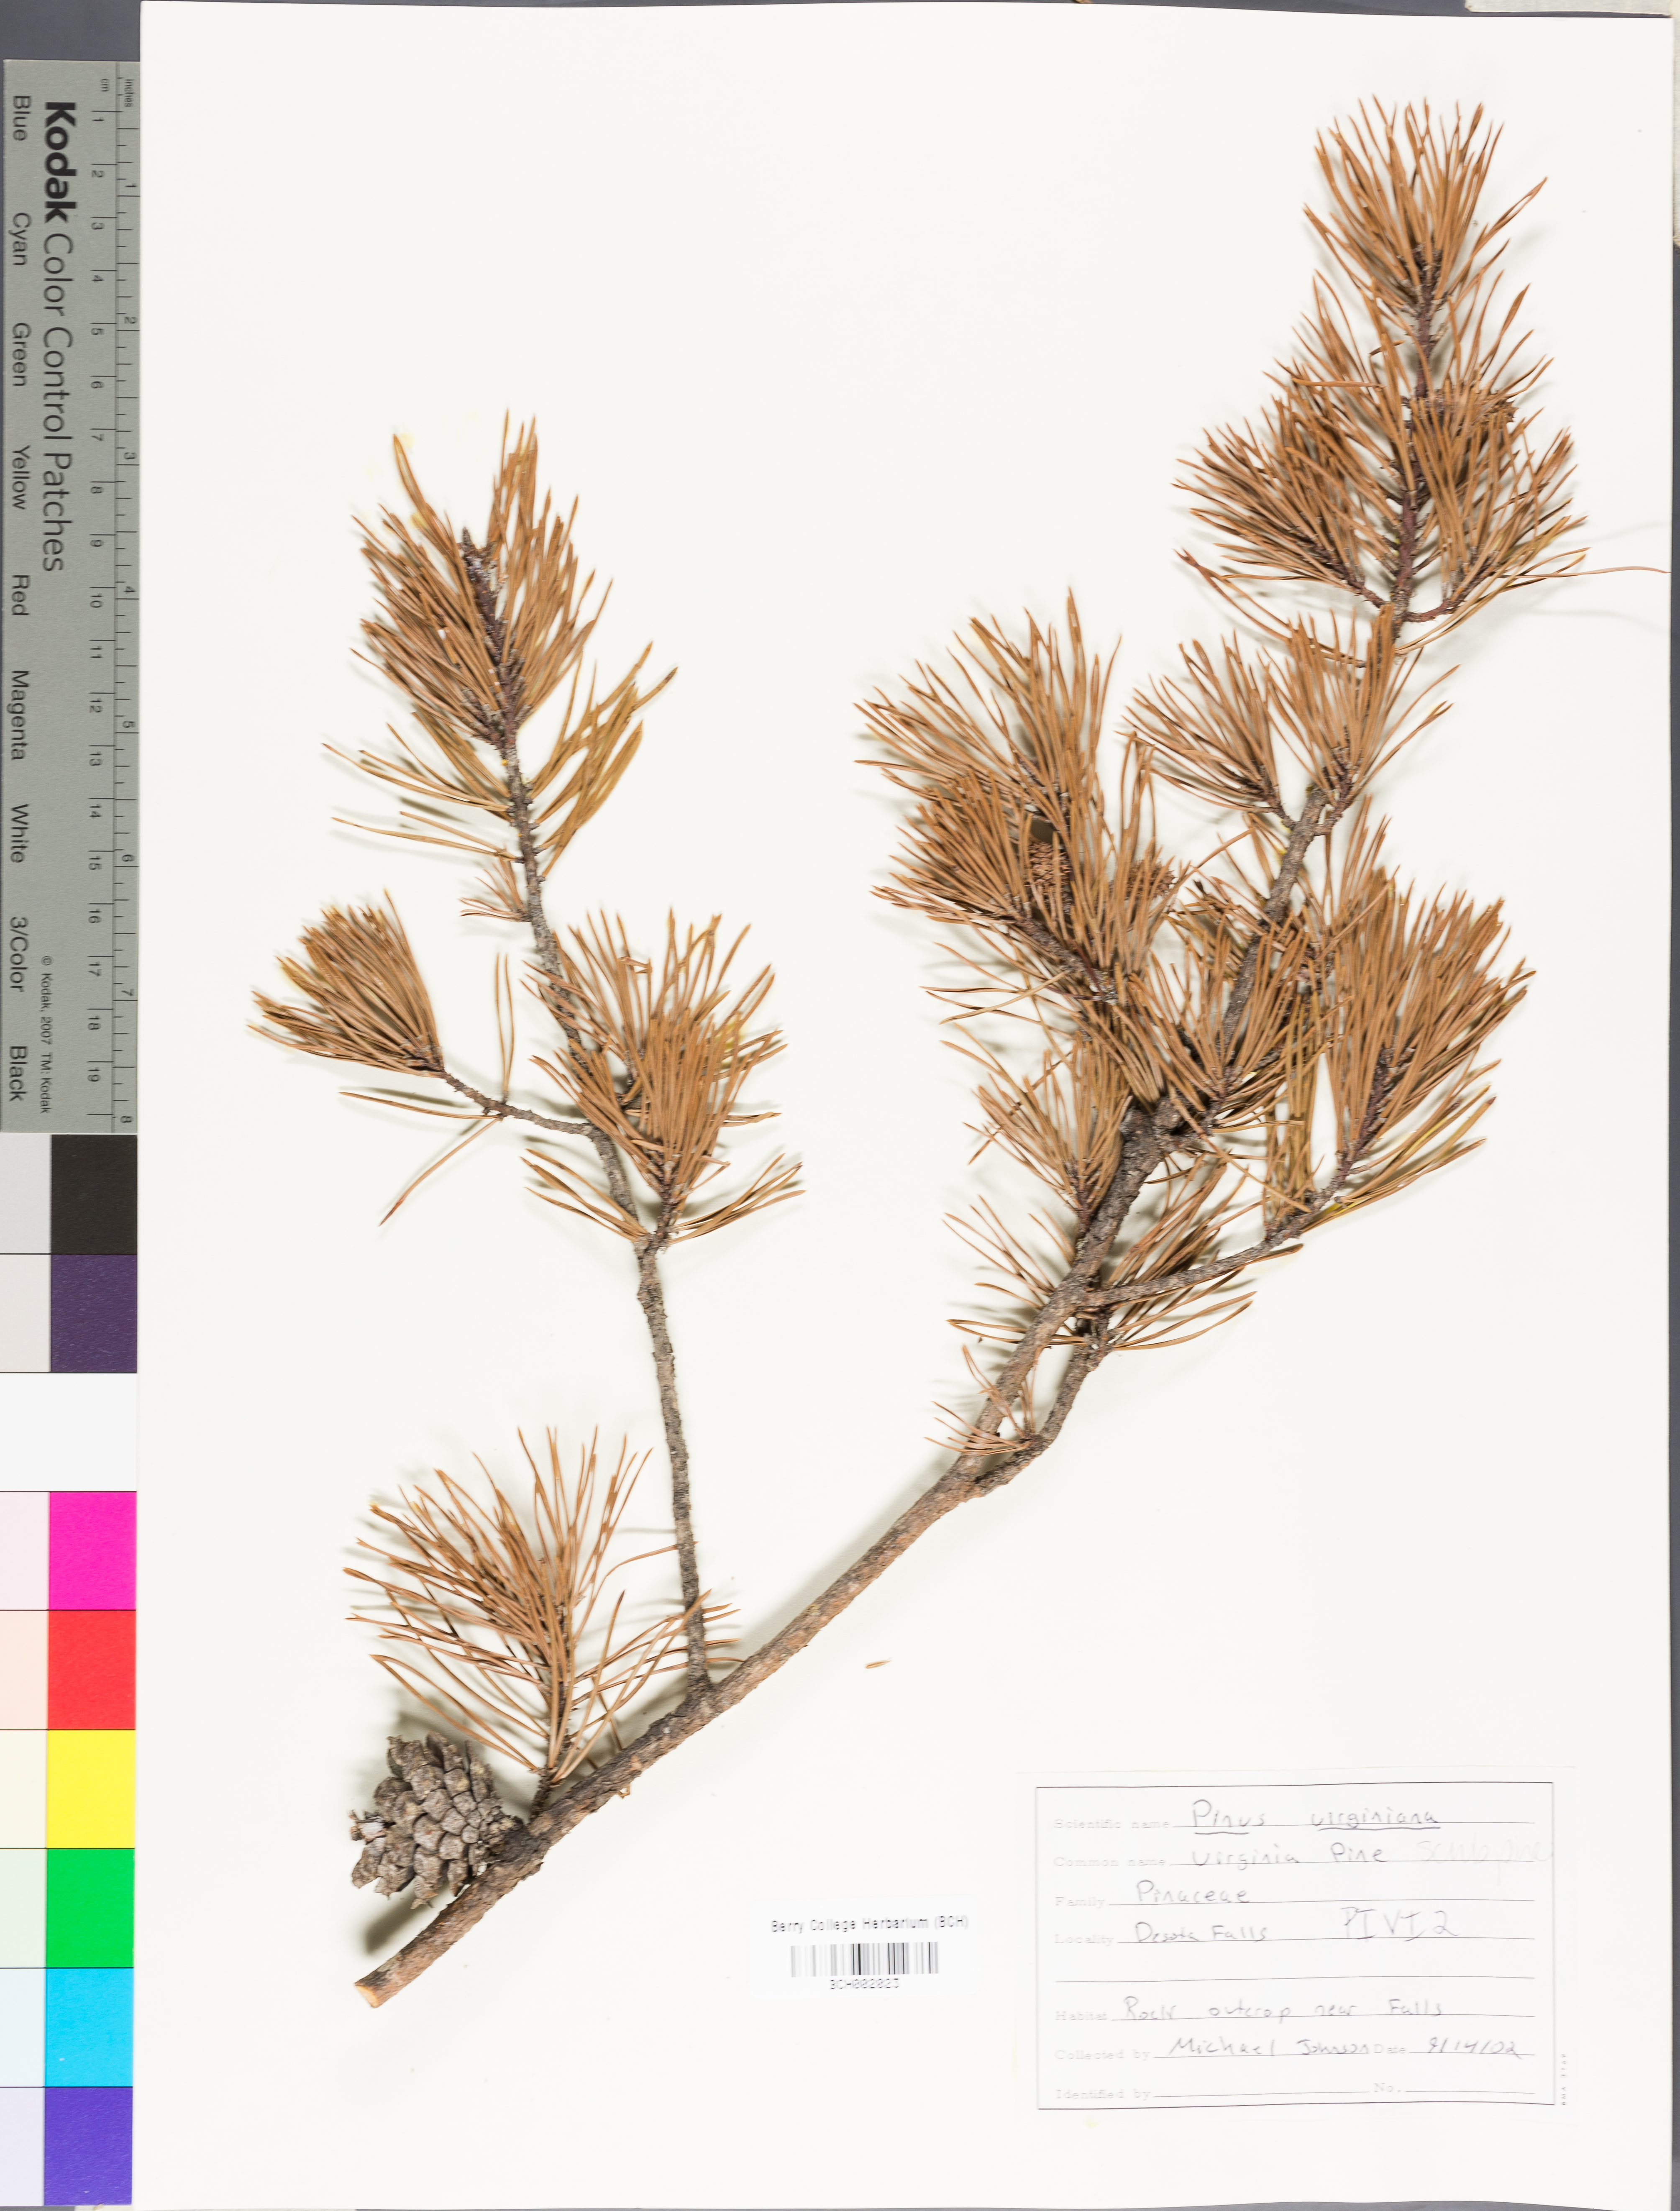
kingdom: Plantae
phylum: Tracheophyta
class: Pinopsida
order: Pinales
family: Pinaceae
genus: Pinus
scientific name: Pinus virginiana
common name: Scrub pine
